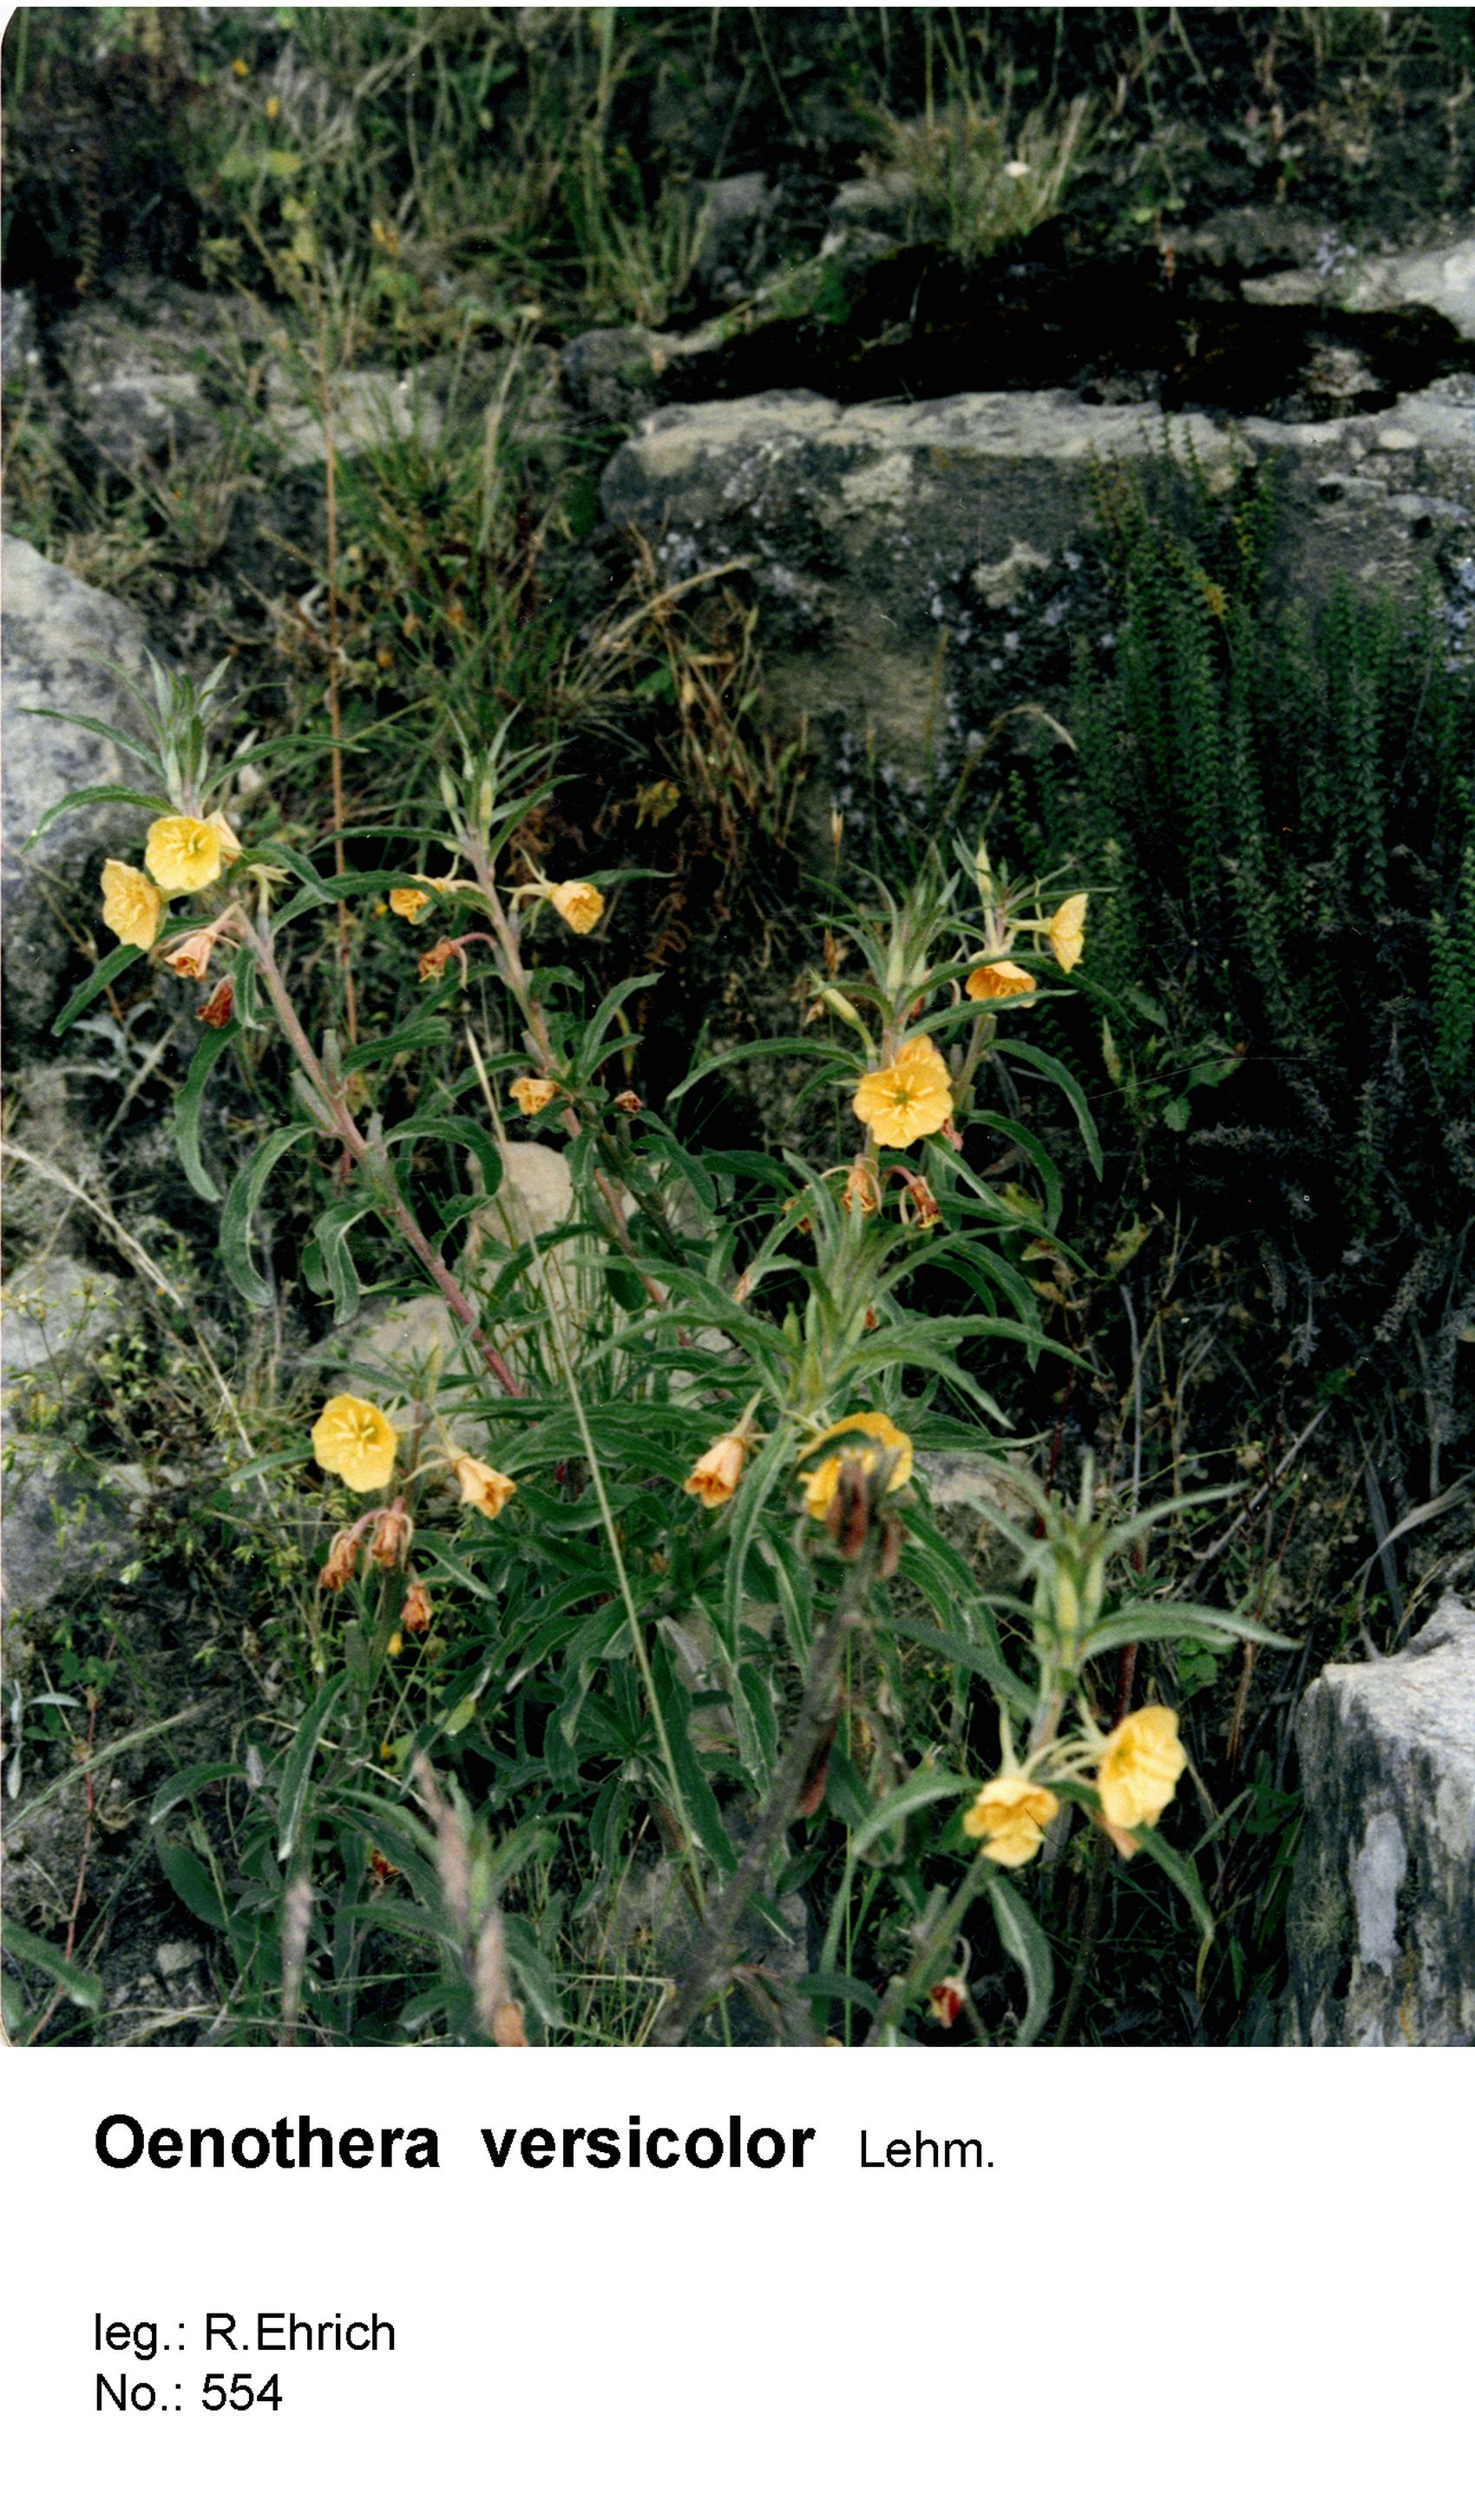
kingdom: Plantae
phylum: Tracheophyta
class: Magnoliopsida
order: Myrtales
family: Onagraceae
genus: Oenothera
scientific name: Oenothera versicolor
